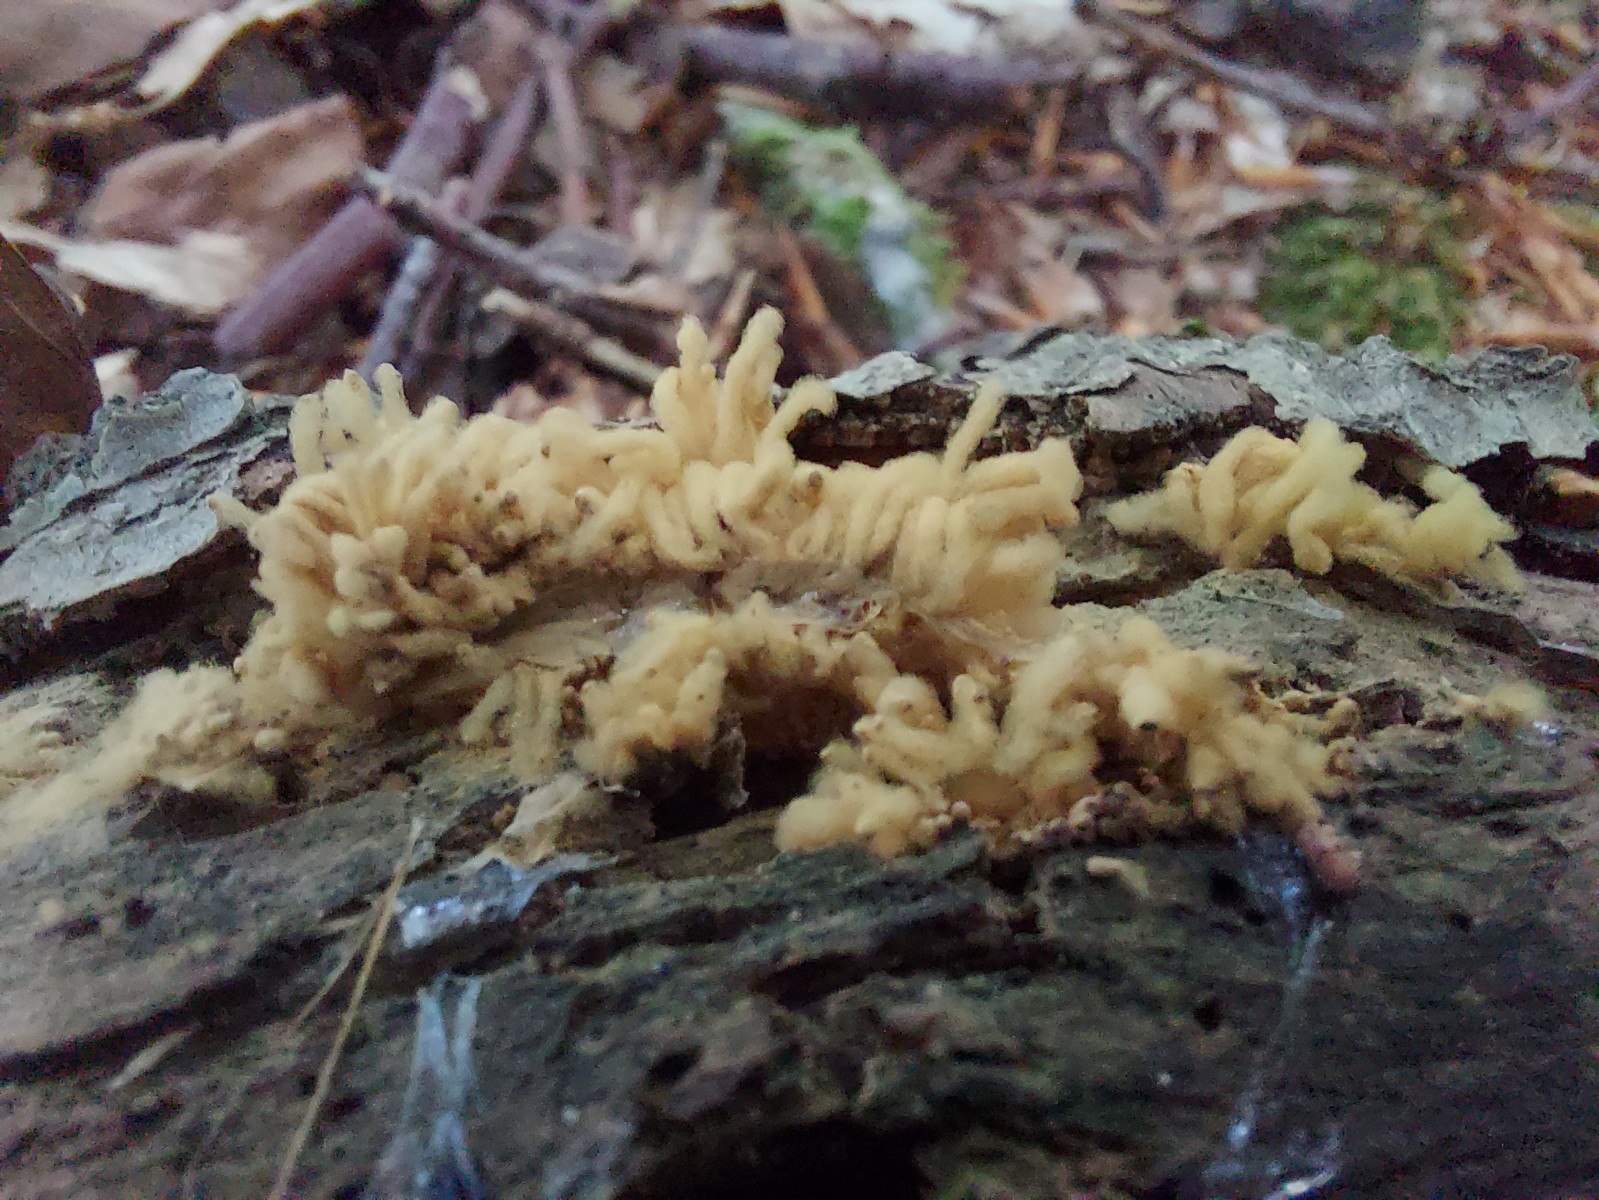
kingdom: Protozoa
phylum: Mycetozoa
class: Myxomycetes
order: Trichiales
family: Arcyriaceae
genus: Arcyria
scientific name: Arcyria obvelata
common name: okkergul skålsvøb
